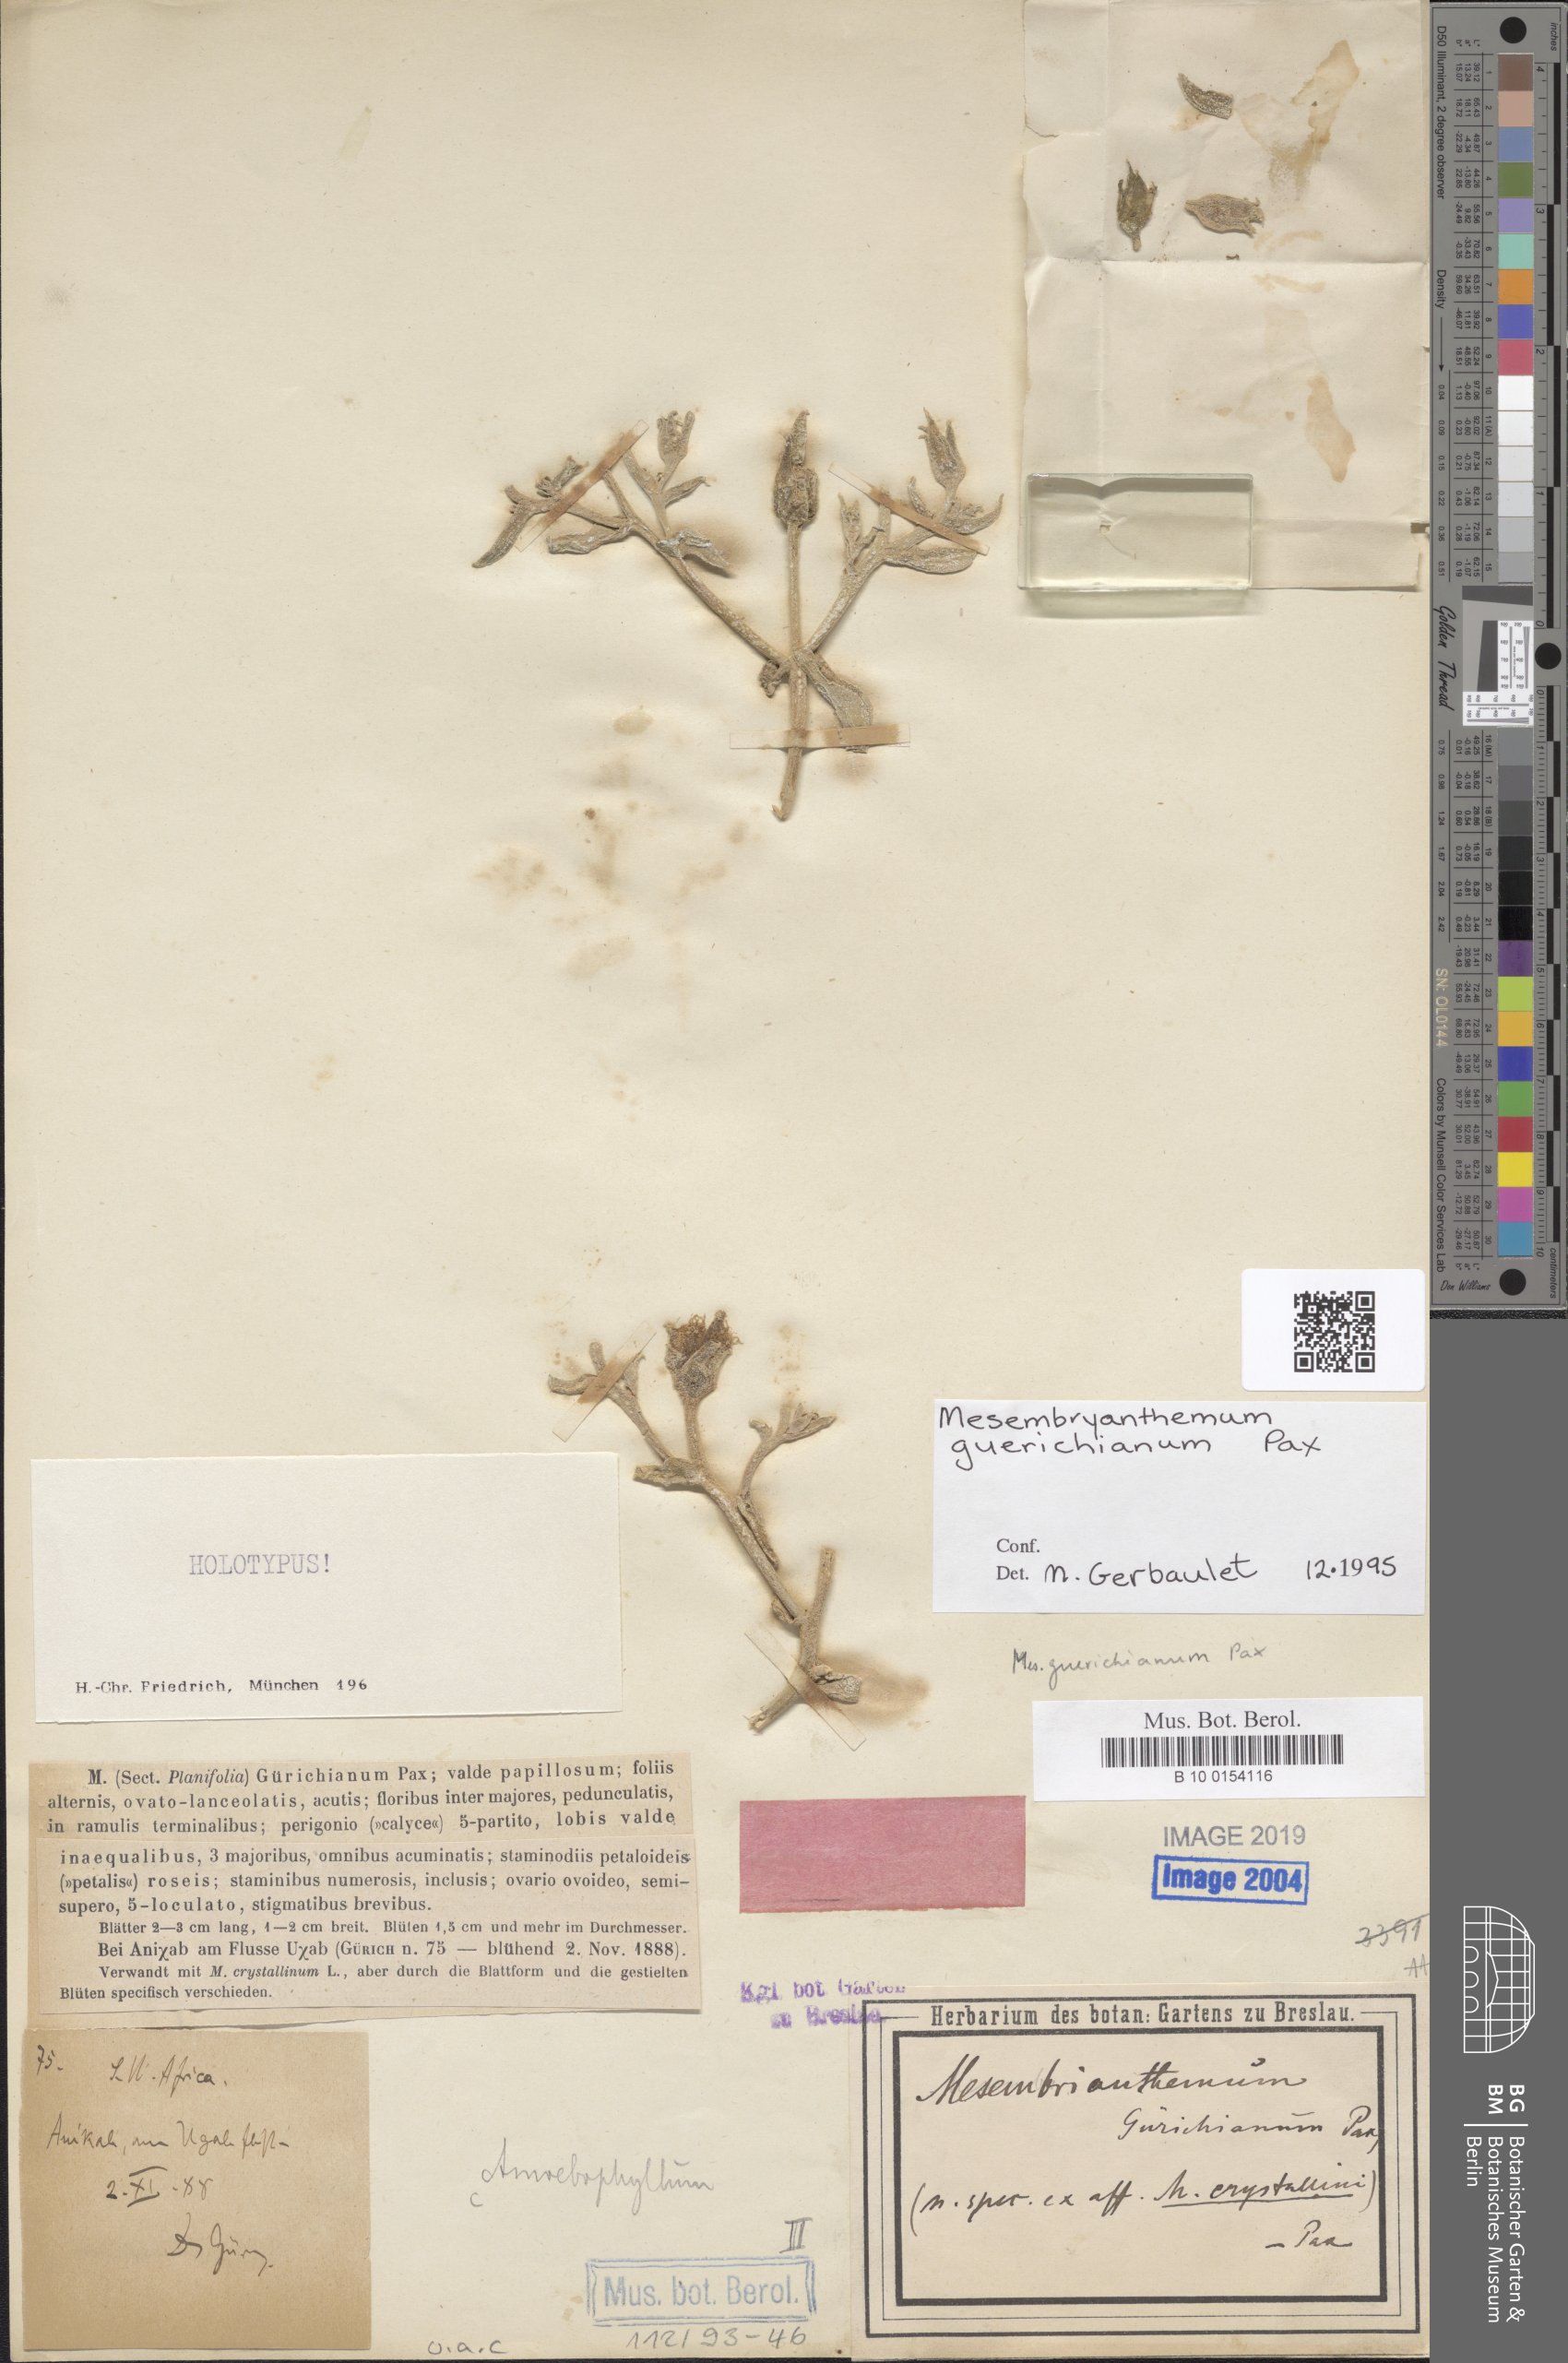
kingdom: Plantae
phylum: Tracheophyta
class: Magnoliopsida
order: Caryophyllales
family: Aizoaceae
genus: Mesembryanthemum
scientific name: Mesembryanthemum guerichianum
